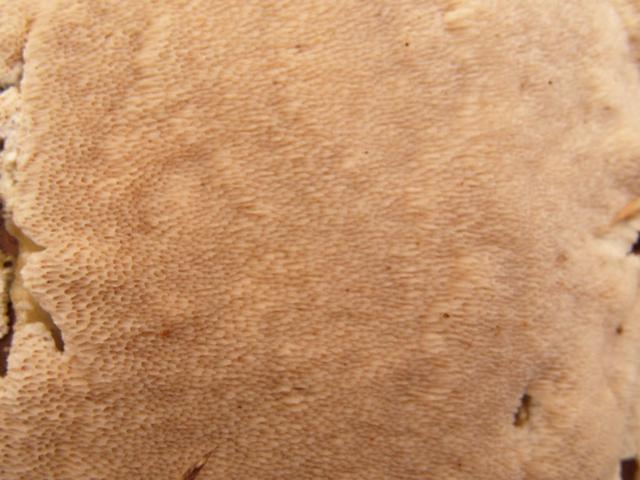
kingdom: Fungi
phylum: Basidiomycota
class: Agaricomycetes
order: Polyporales
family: Gelatoporiaceae
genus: Cinereomyces
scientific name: Cinereomyces lindbladii
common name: almindelig gråporesvamp
